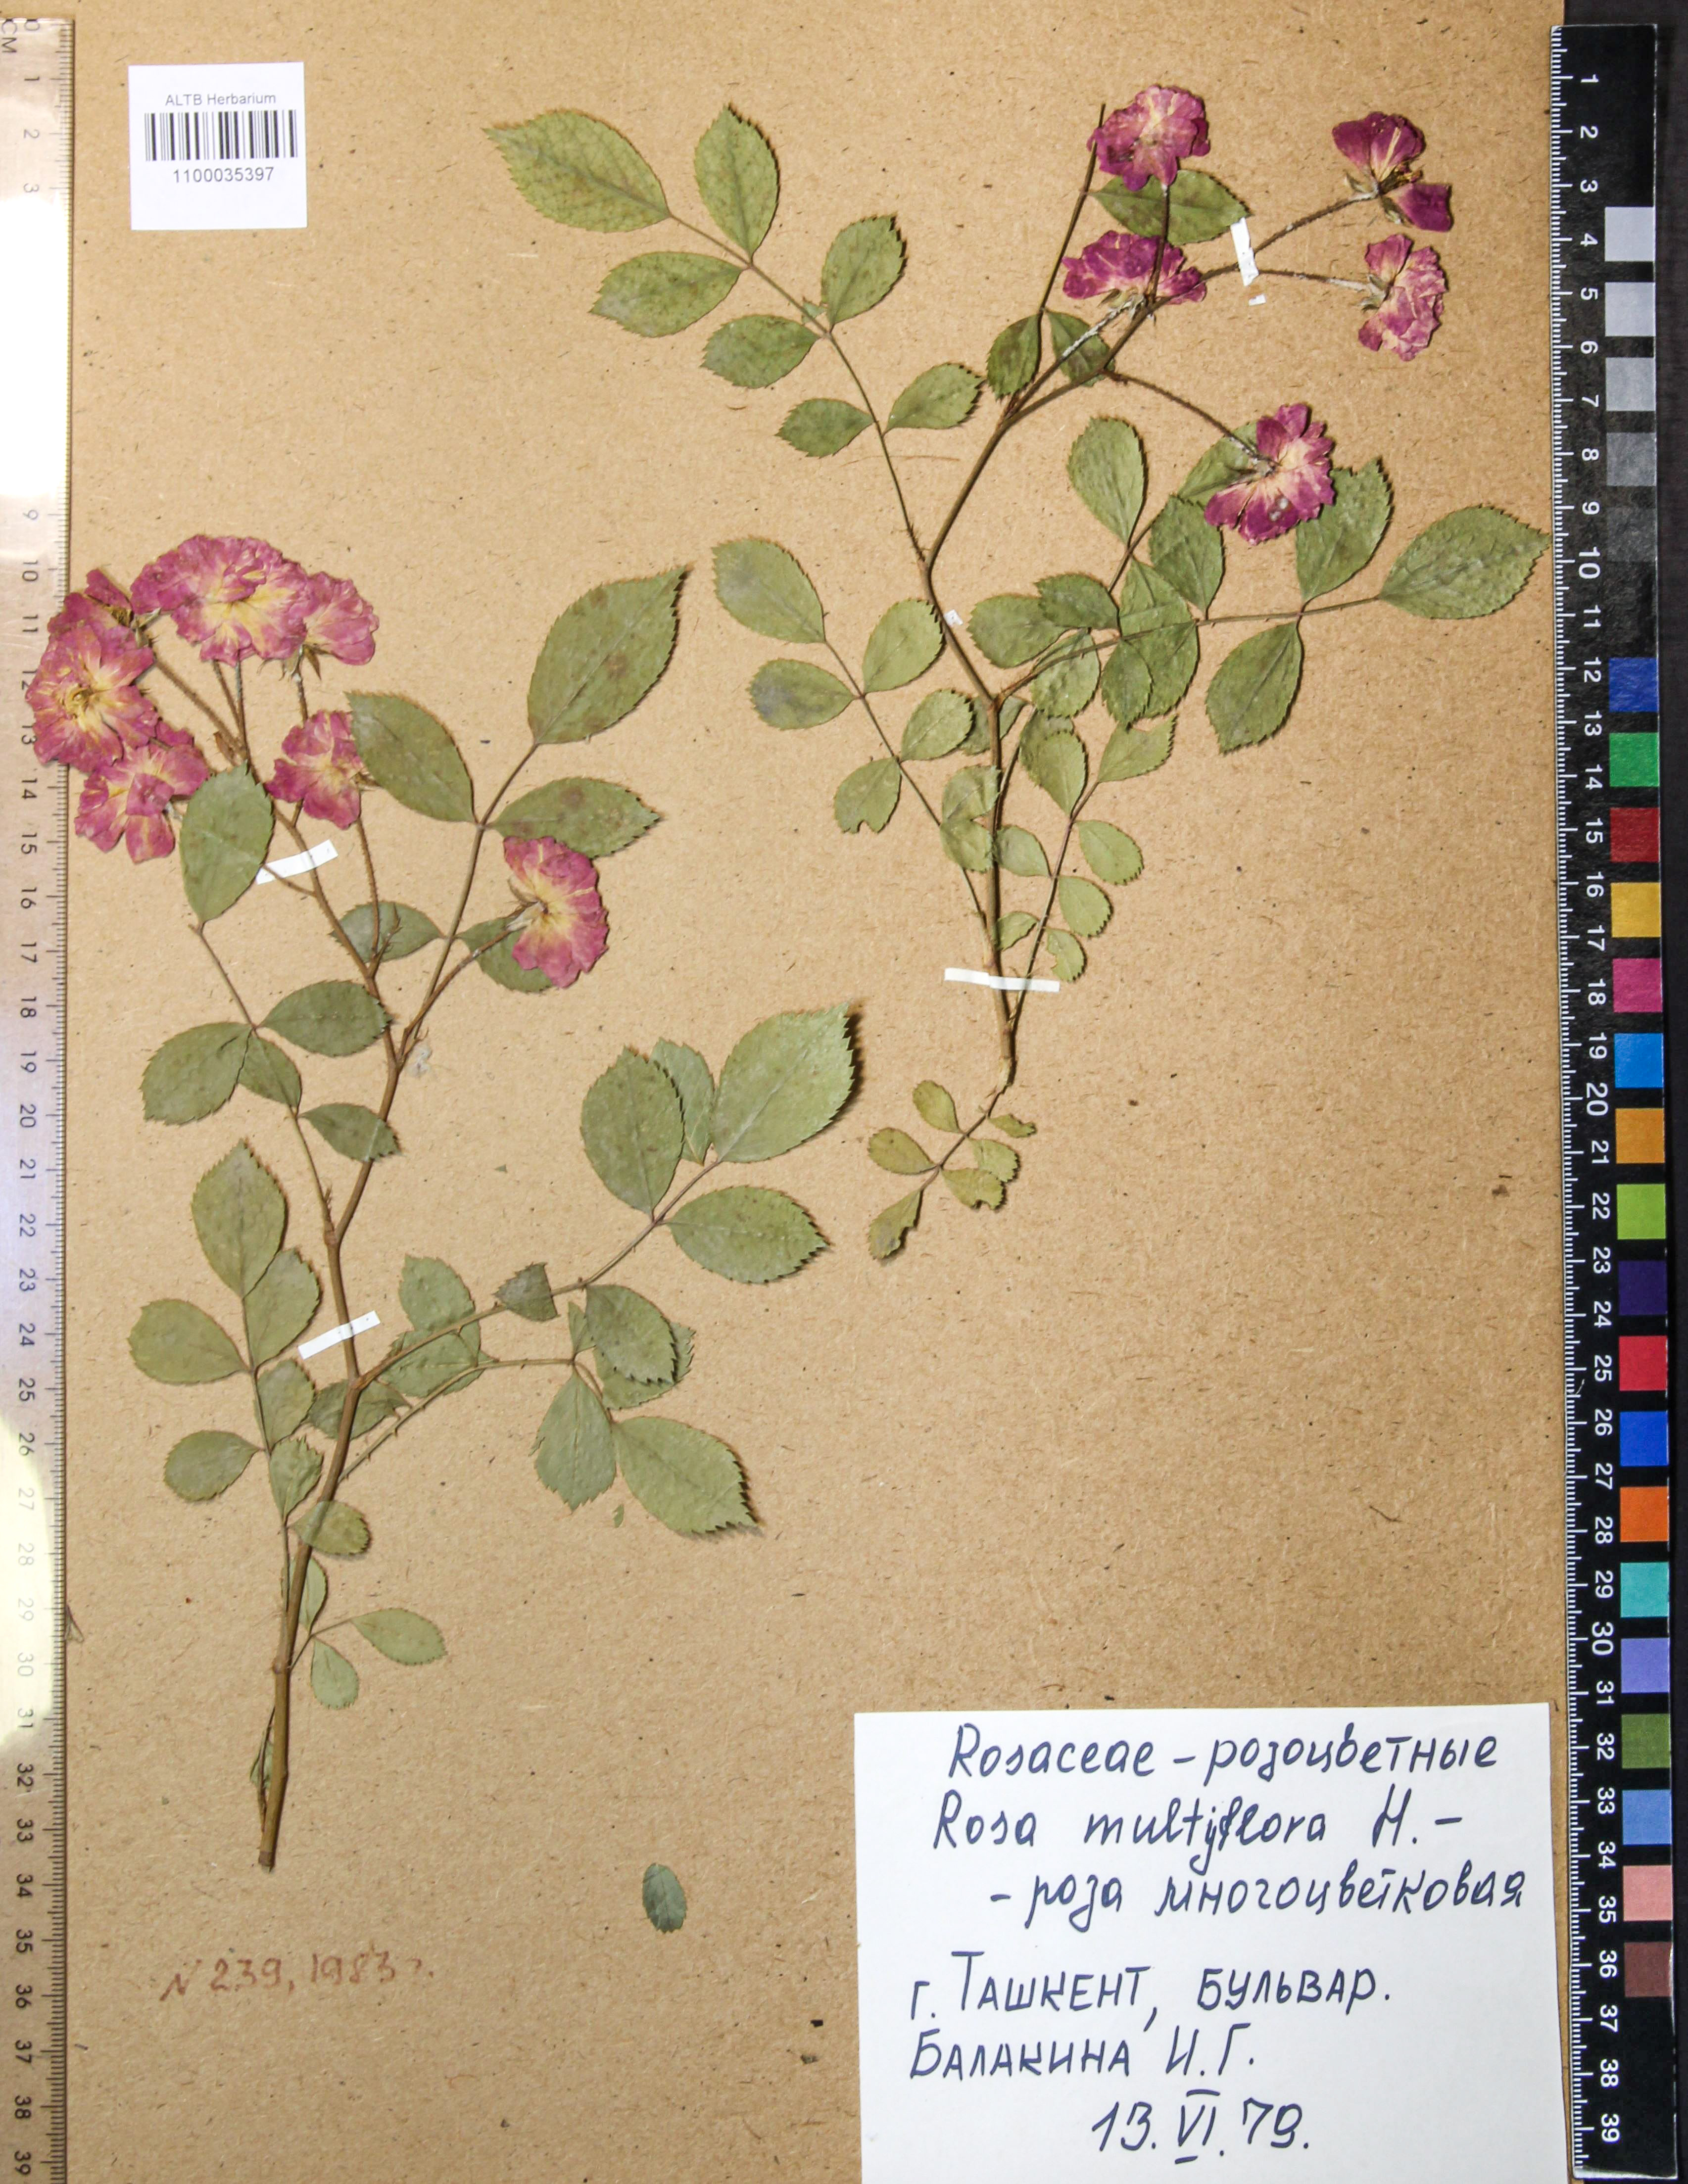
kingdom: Plantae
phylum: Tracheophyta
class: Magnoliopsida
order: Rosales
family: Rosaceae
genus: Rosa
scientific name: Rosa multiflora
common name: Multiflora rose
